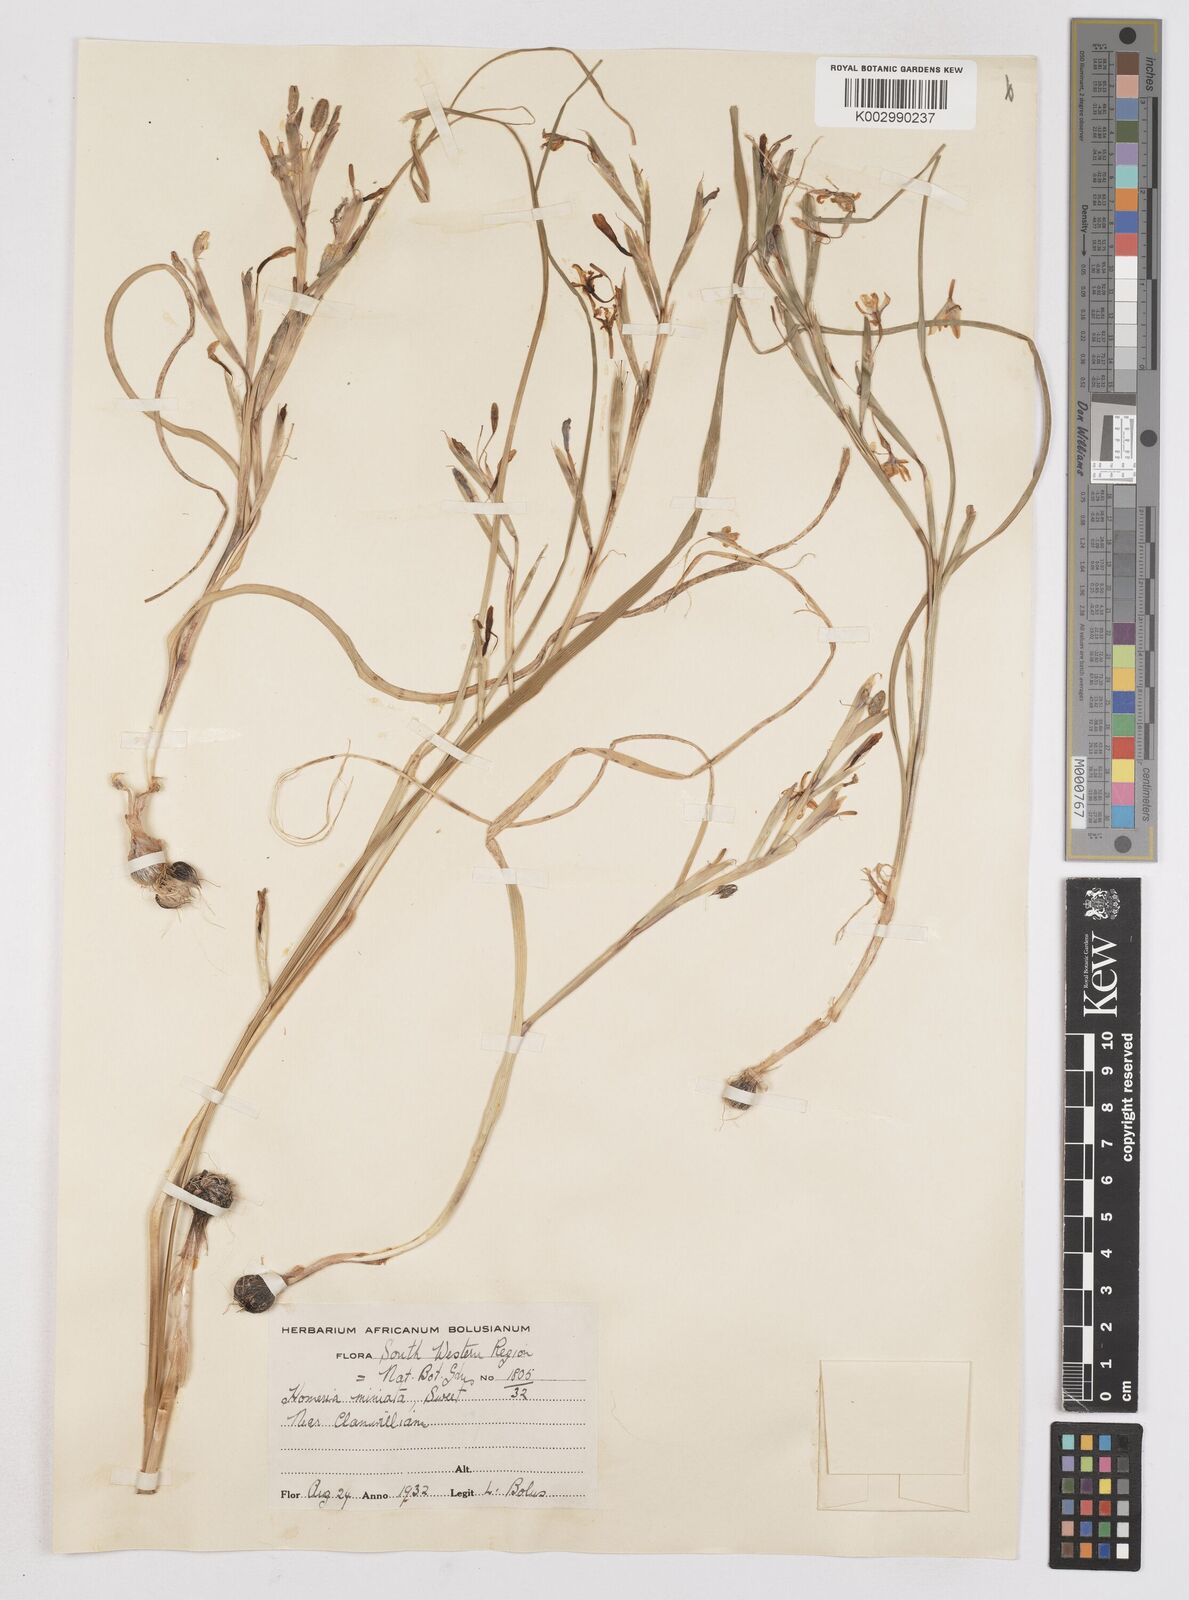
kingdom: Plantae
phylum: Tracheophyta
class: Liliopsida
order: Asparagales
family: Iridaceae
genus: Moraea
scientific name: Moraea miniata
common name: Two-leaf cape-tulip
